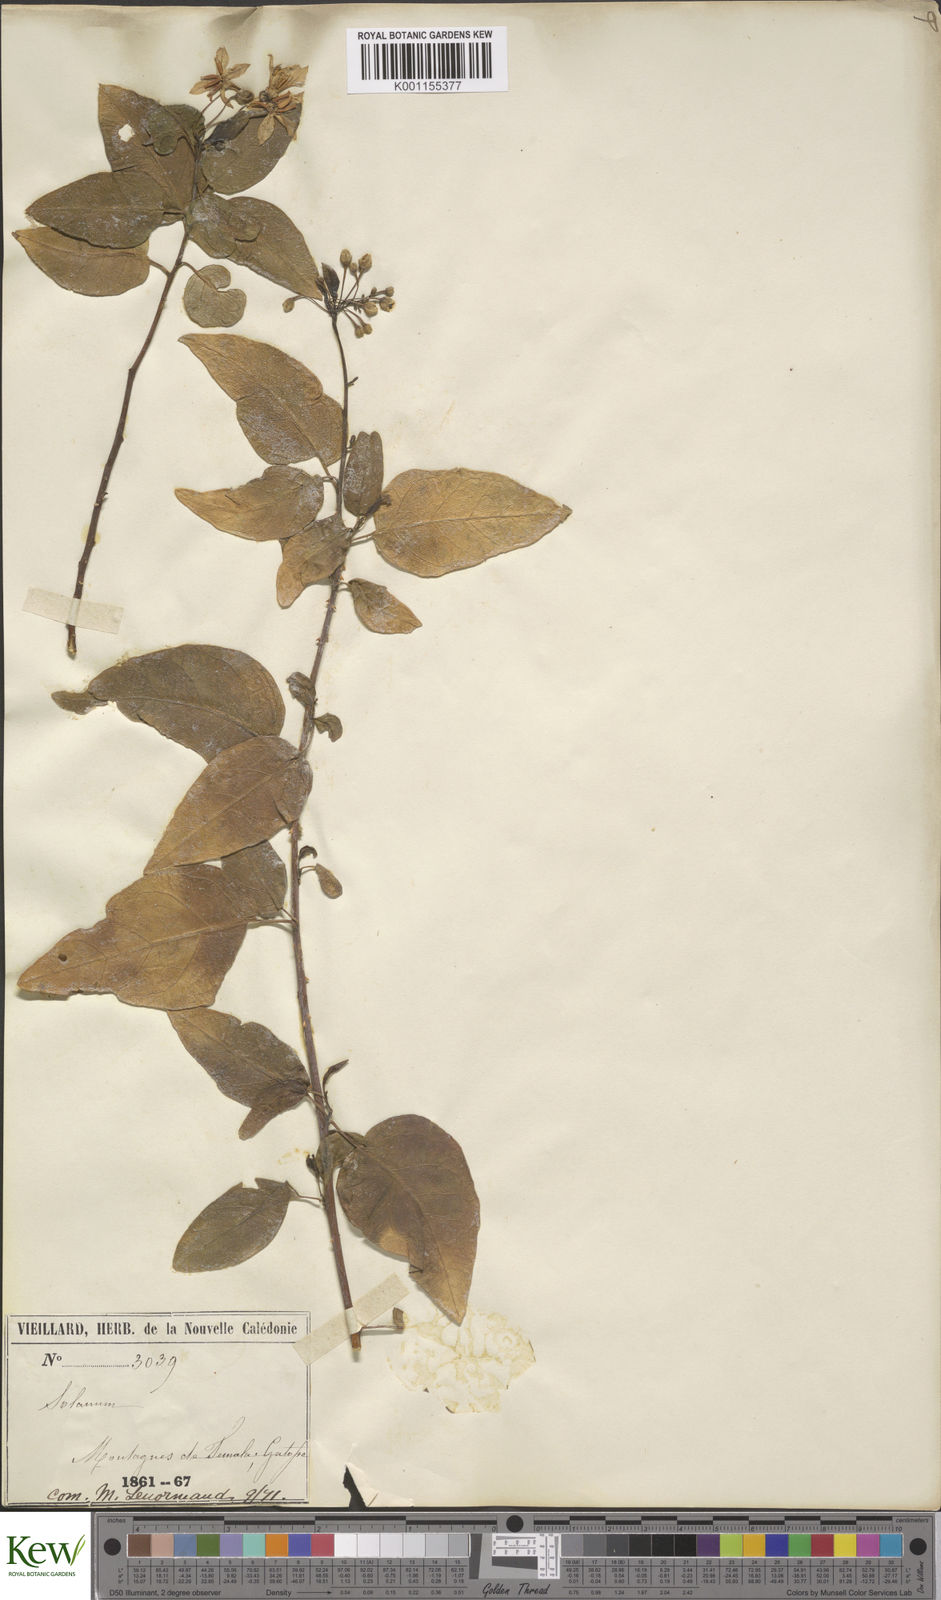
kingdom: Plantae
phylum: Tracheophyta
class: Magnoliopsida
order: Solanales
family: Solanaceae
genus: Solanum
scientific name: Solanum leratii
